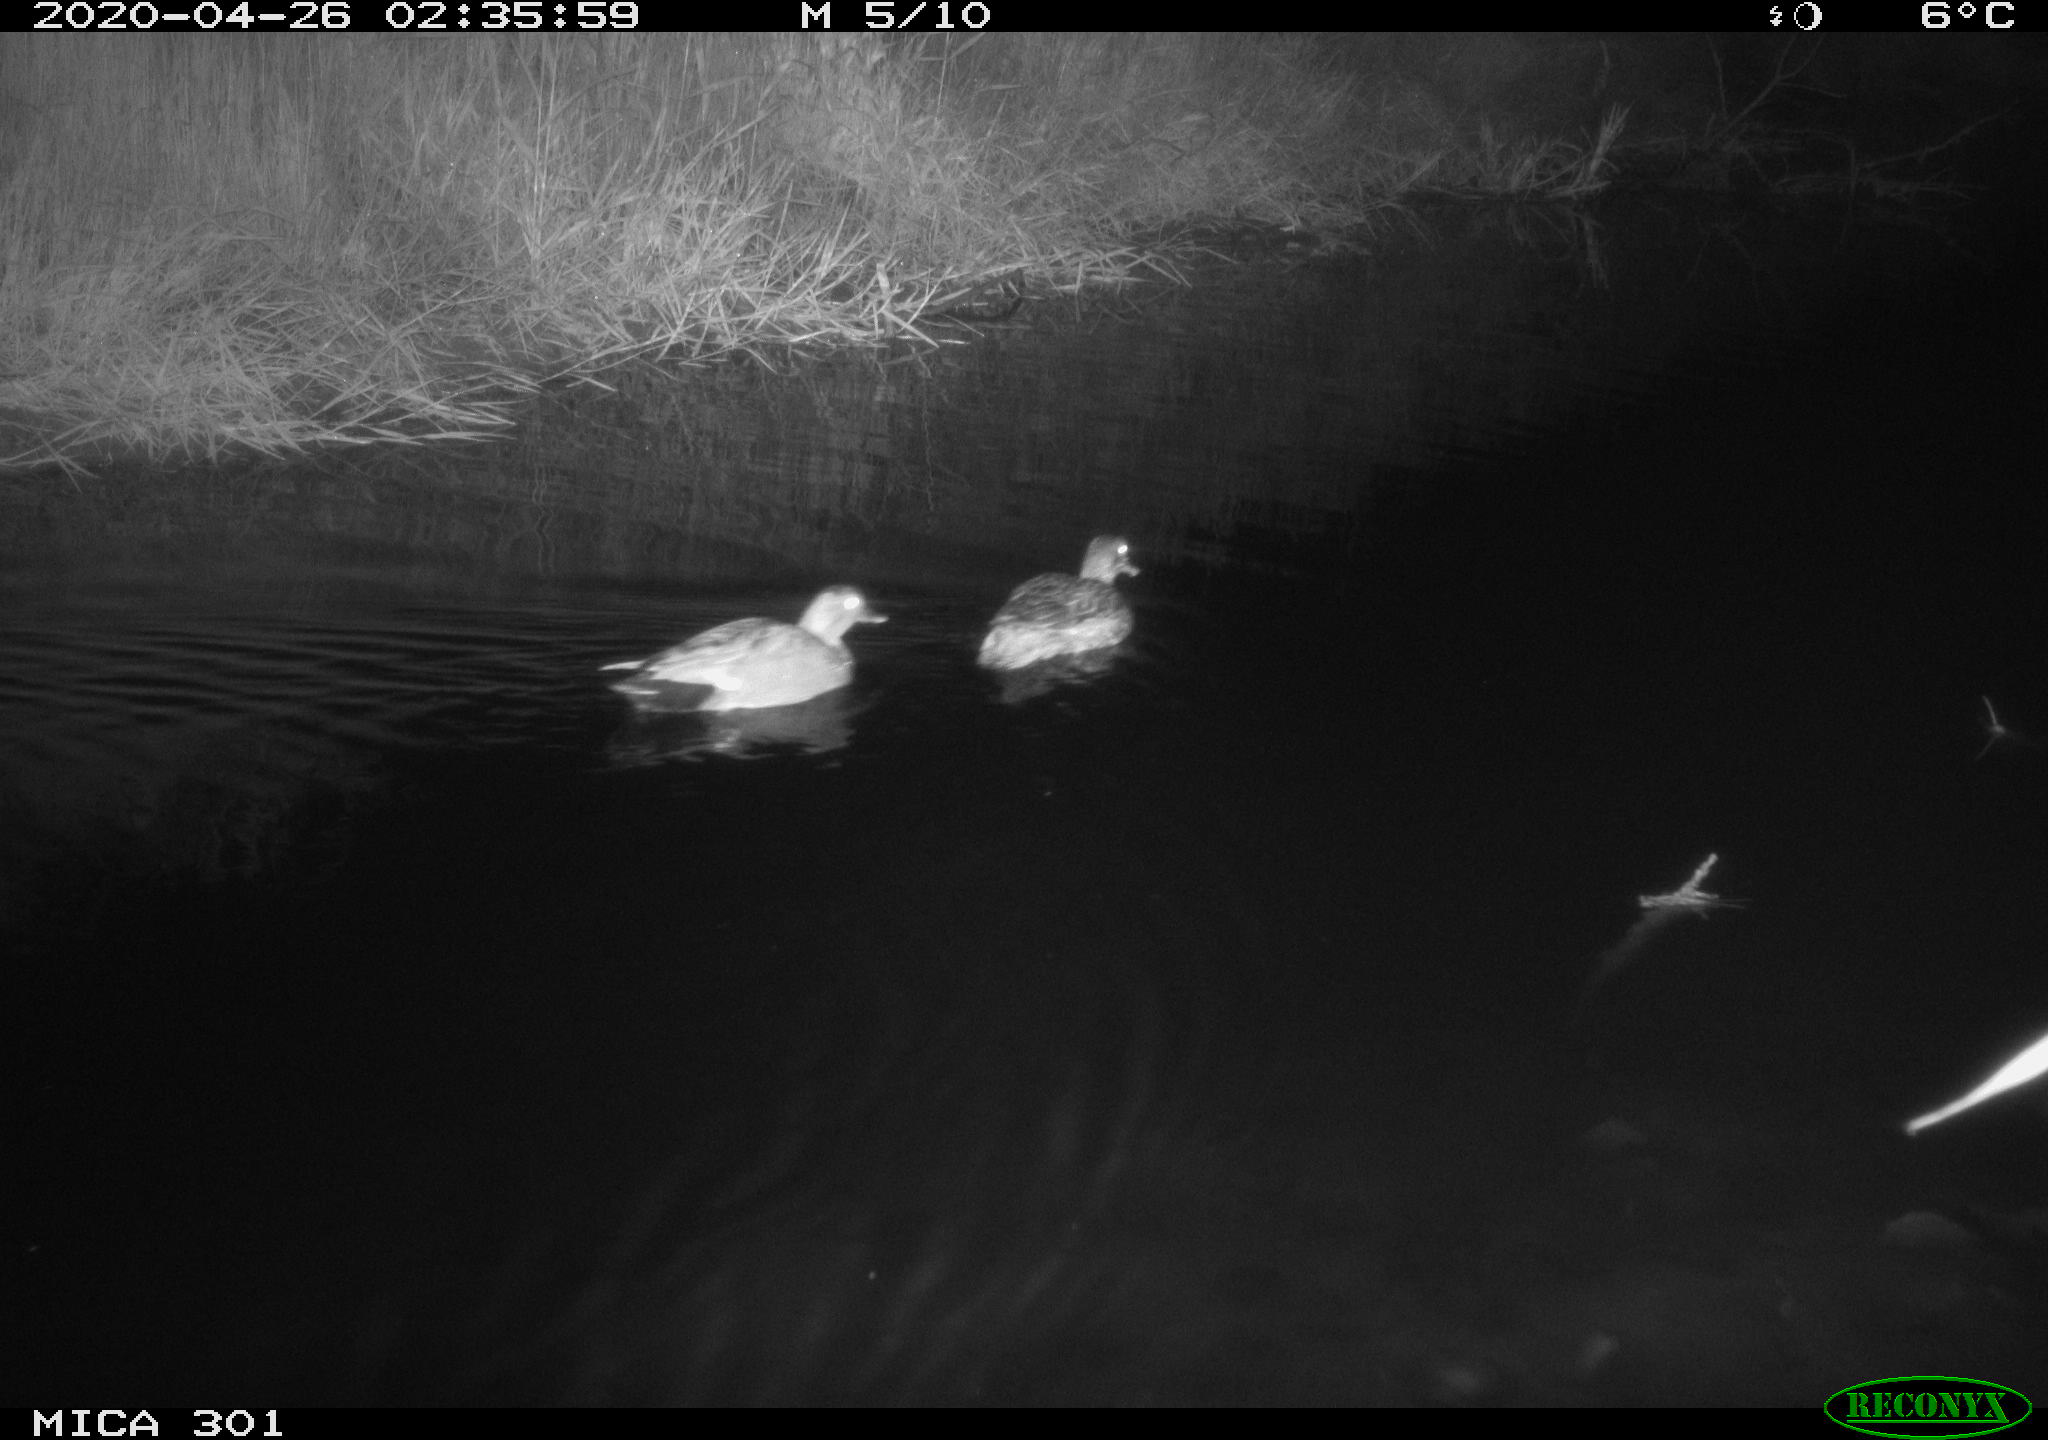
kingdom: Animalia
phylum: Chordata
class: Aves
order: Anseriformes
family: Anatidae
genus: Mareca
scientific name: Mareca strepera
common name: Gadwall
